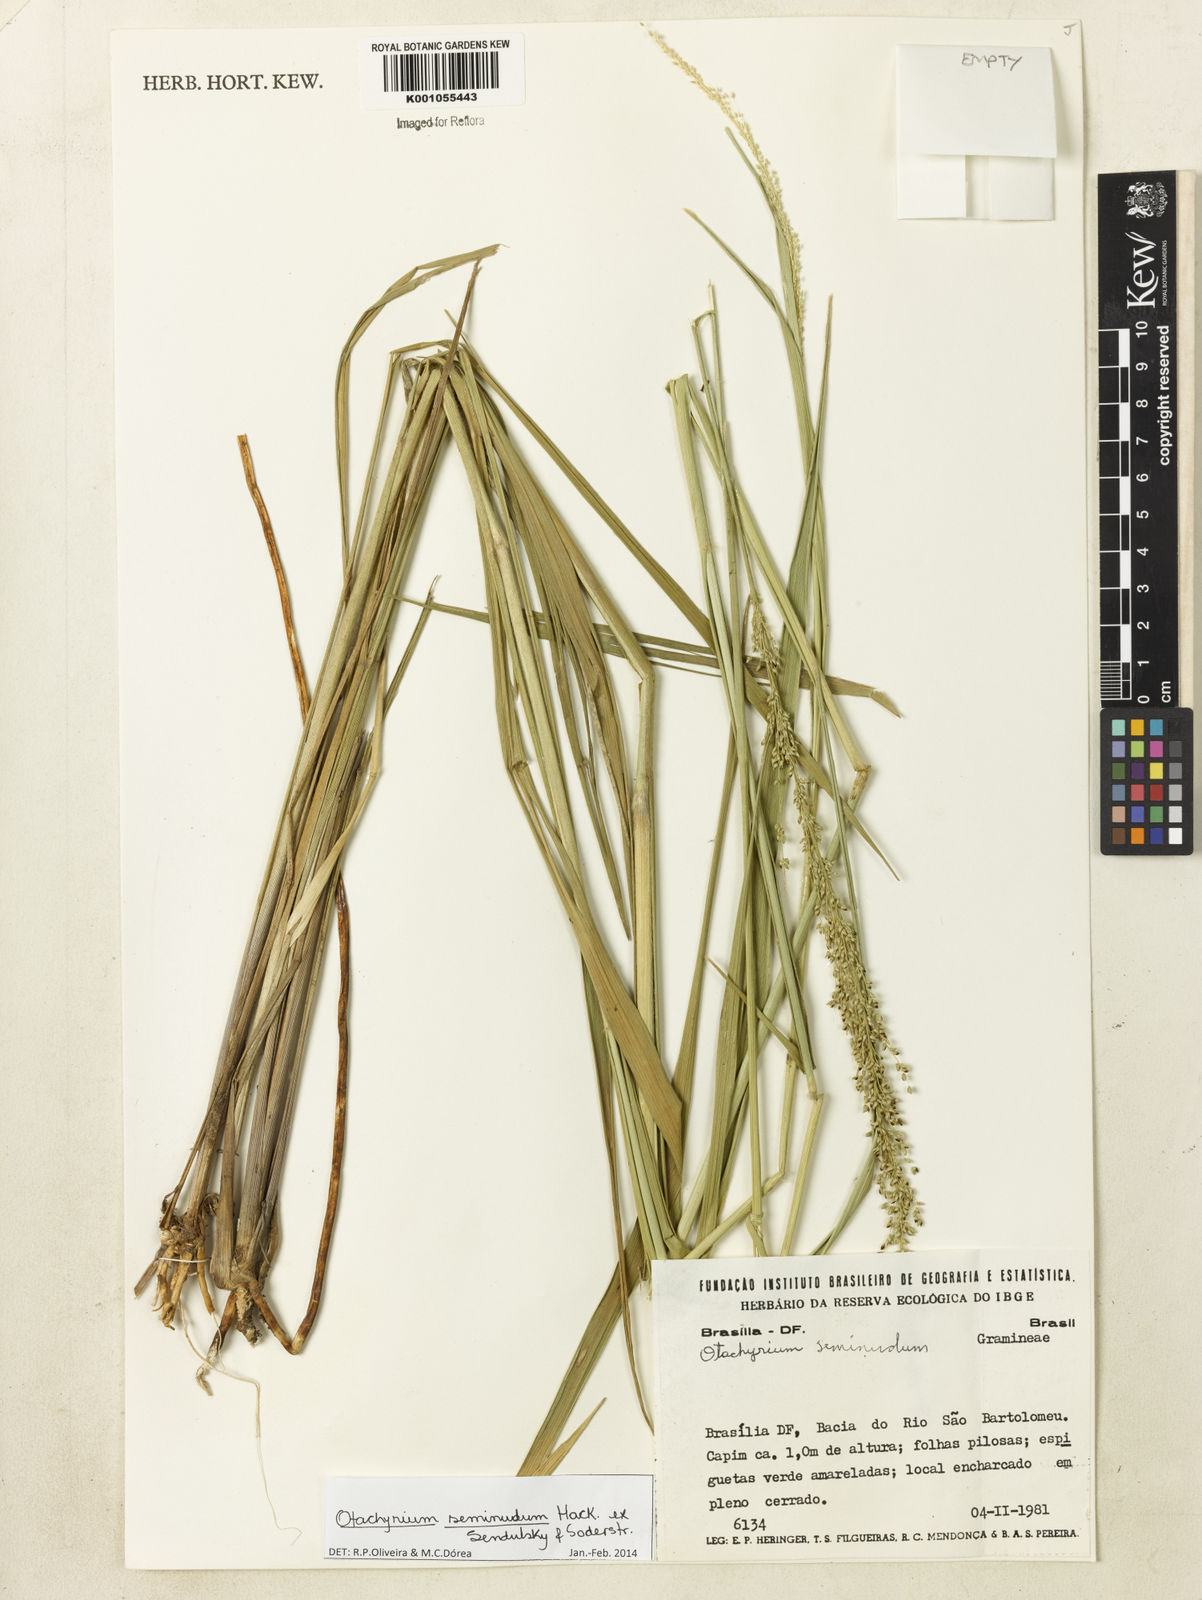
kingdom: Plantae
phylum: Tracheophyta
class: Liliopsida
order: Poales
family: Poaceae
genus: Otachyrium
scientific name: Otachyrium seminudum
